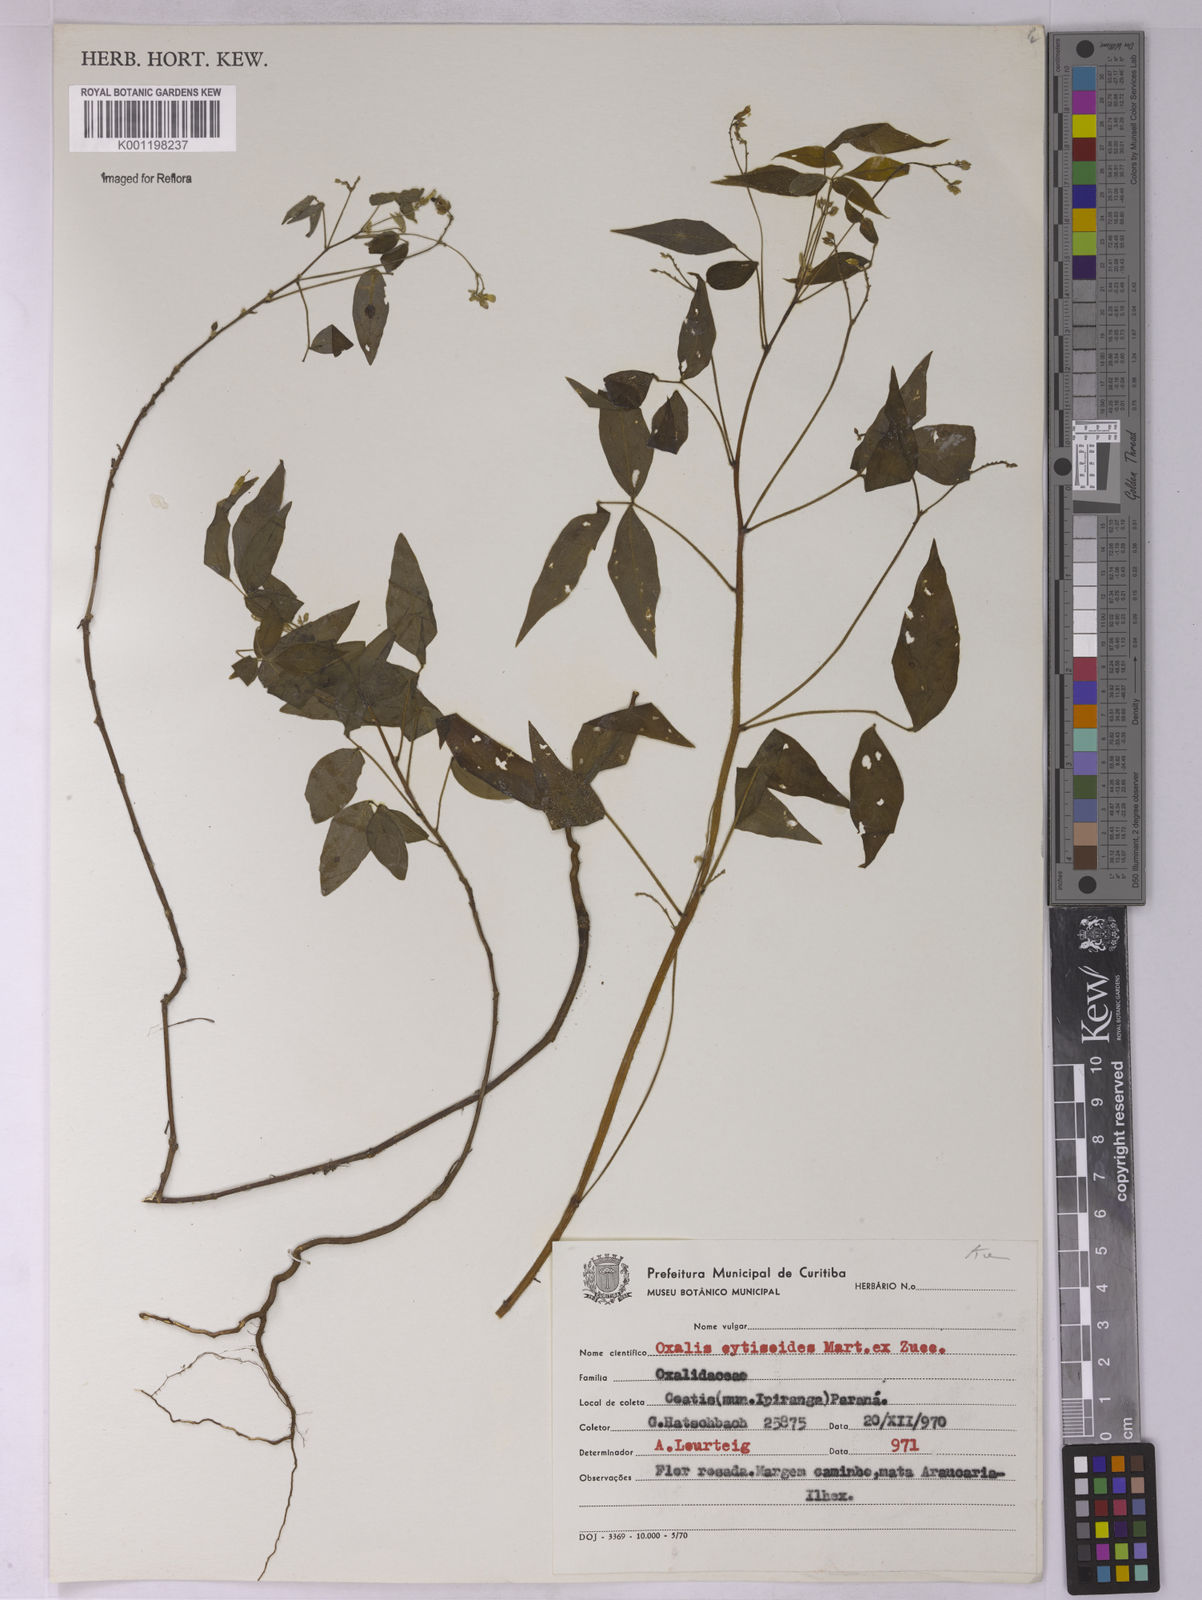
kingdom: Plantae
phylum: Tracheophyta
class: Magnoliopsida
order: Oxalidales
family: Oxalidaceae
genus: Oxalis
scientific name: Oxalis cytisoides
